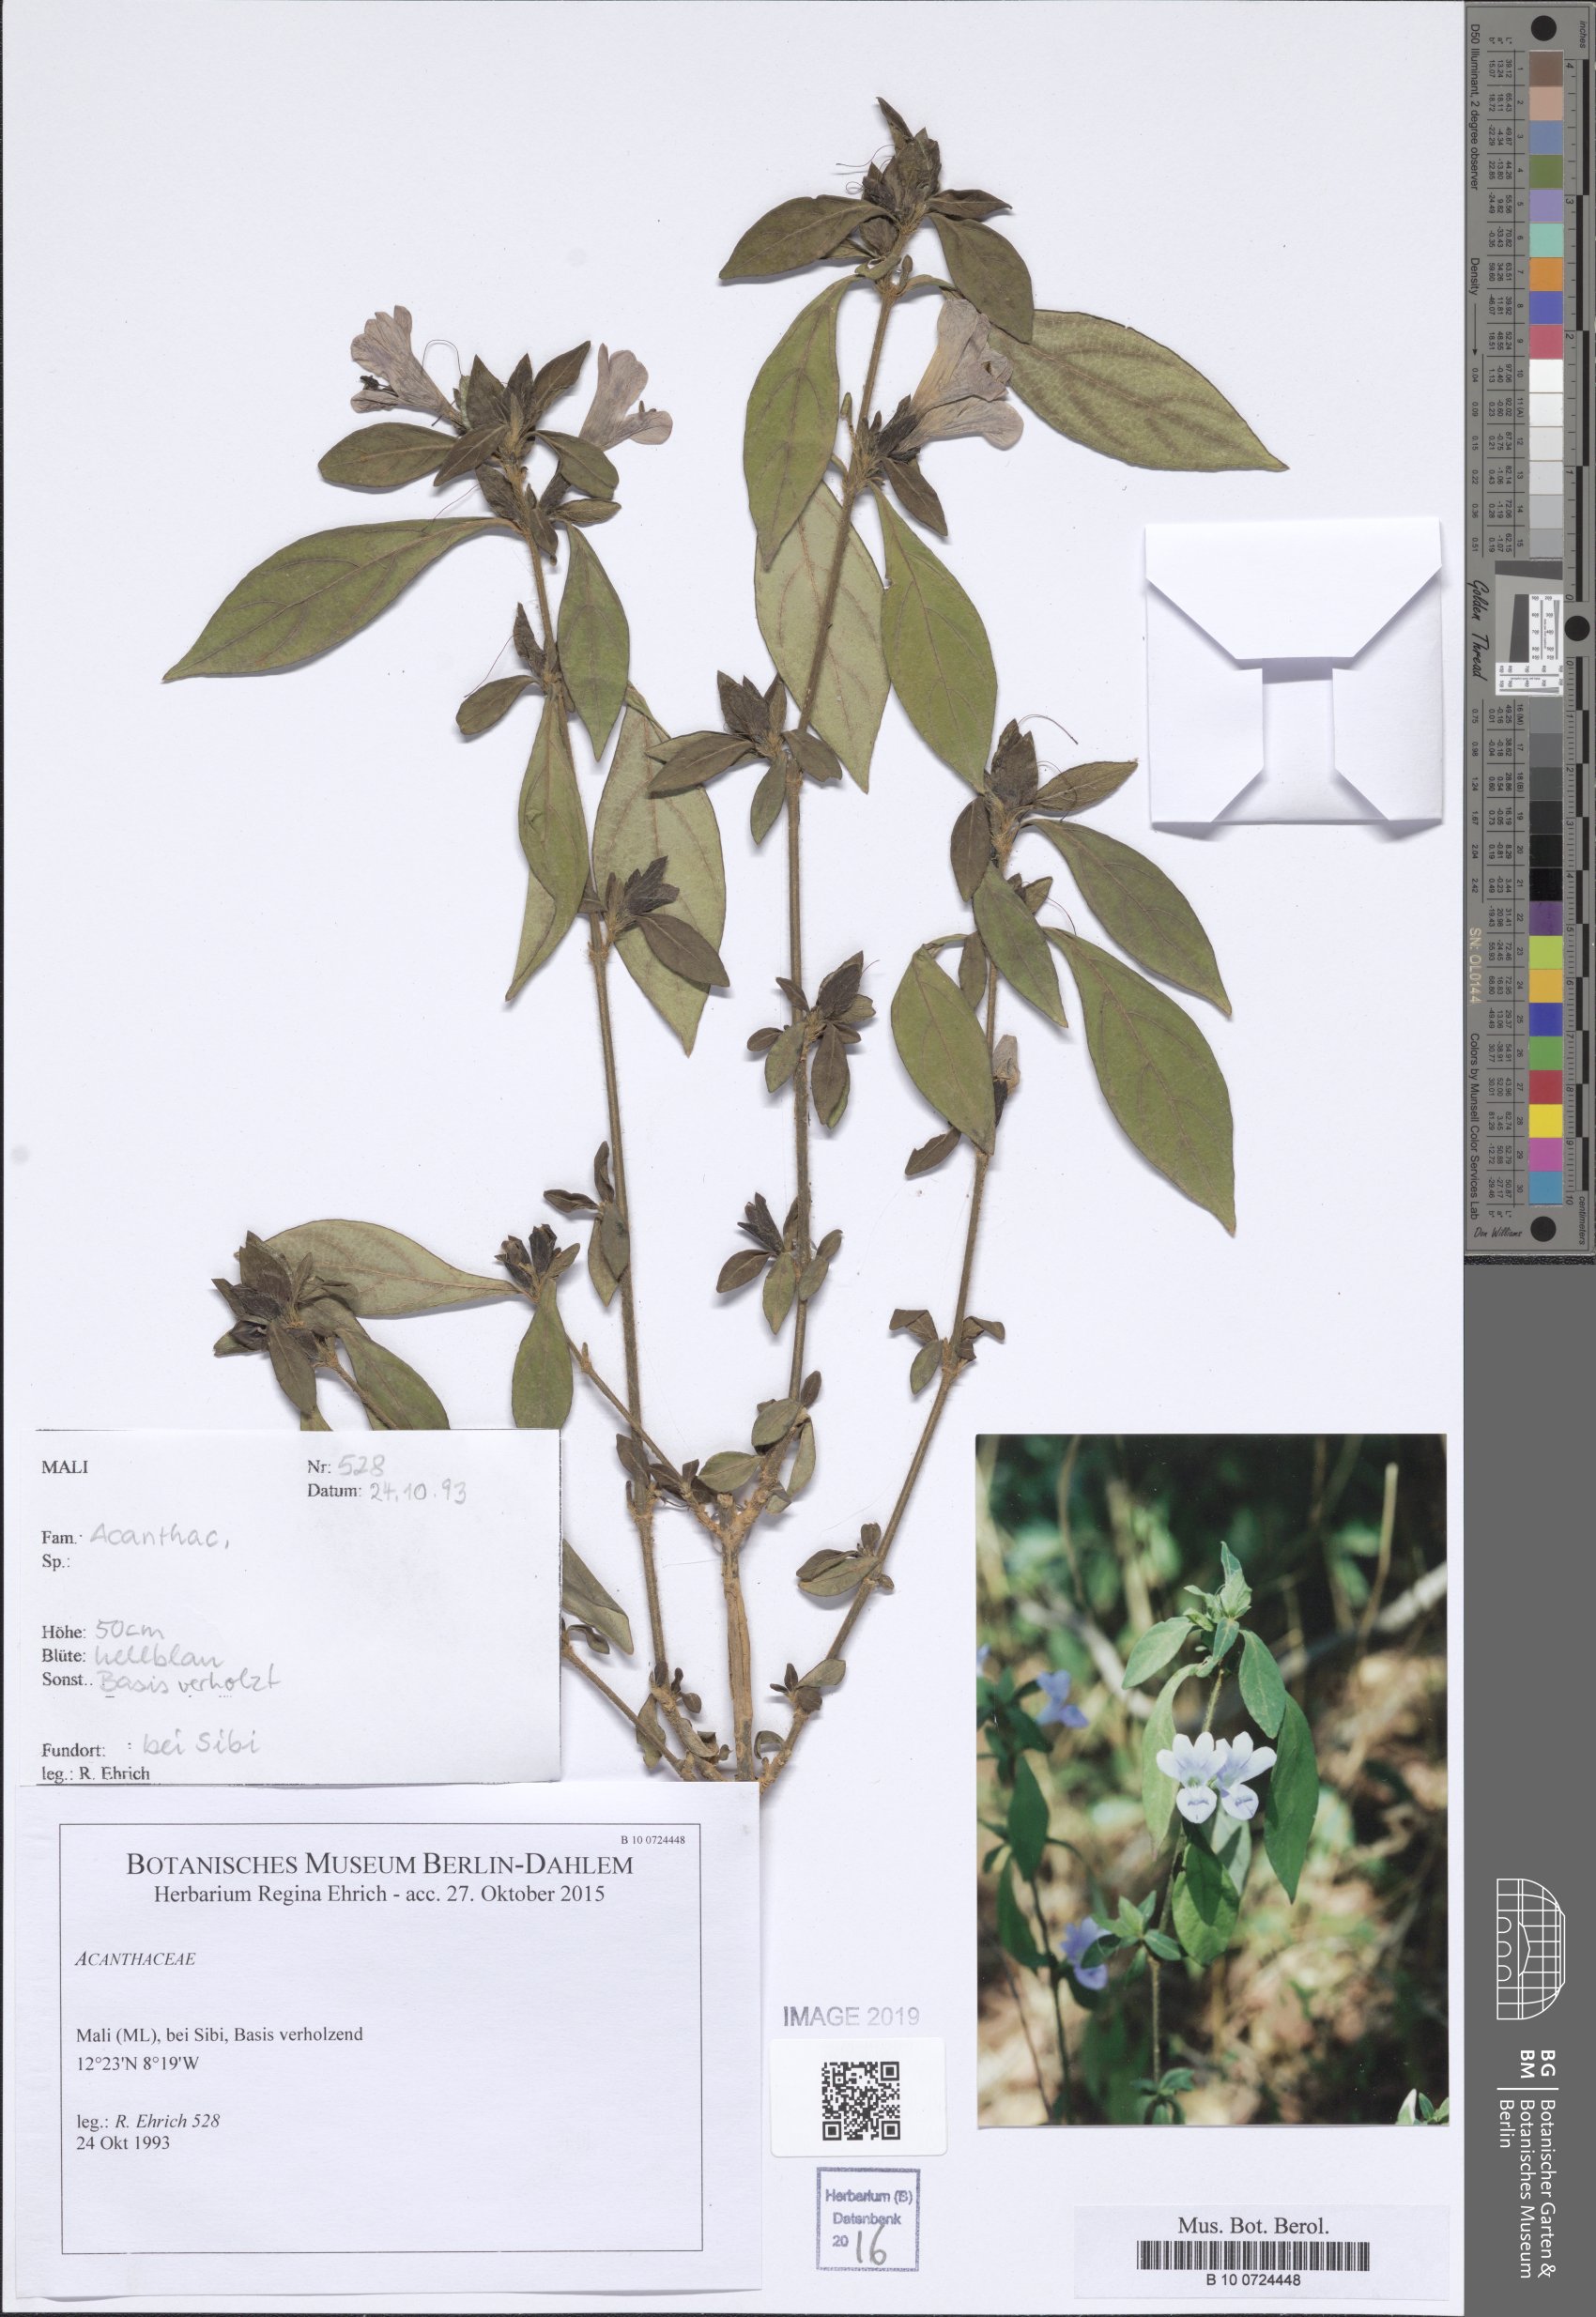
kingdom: Plantae
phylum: Tracheophyta
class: Magnoliopsida
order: Lamiales
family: Acanthaceae
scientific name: Acanthaceae
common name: Acanthaceae
